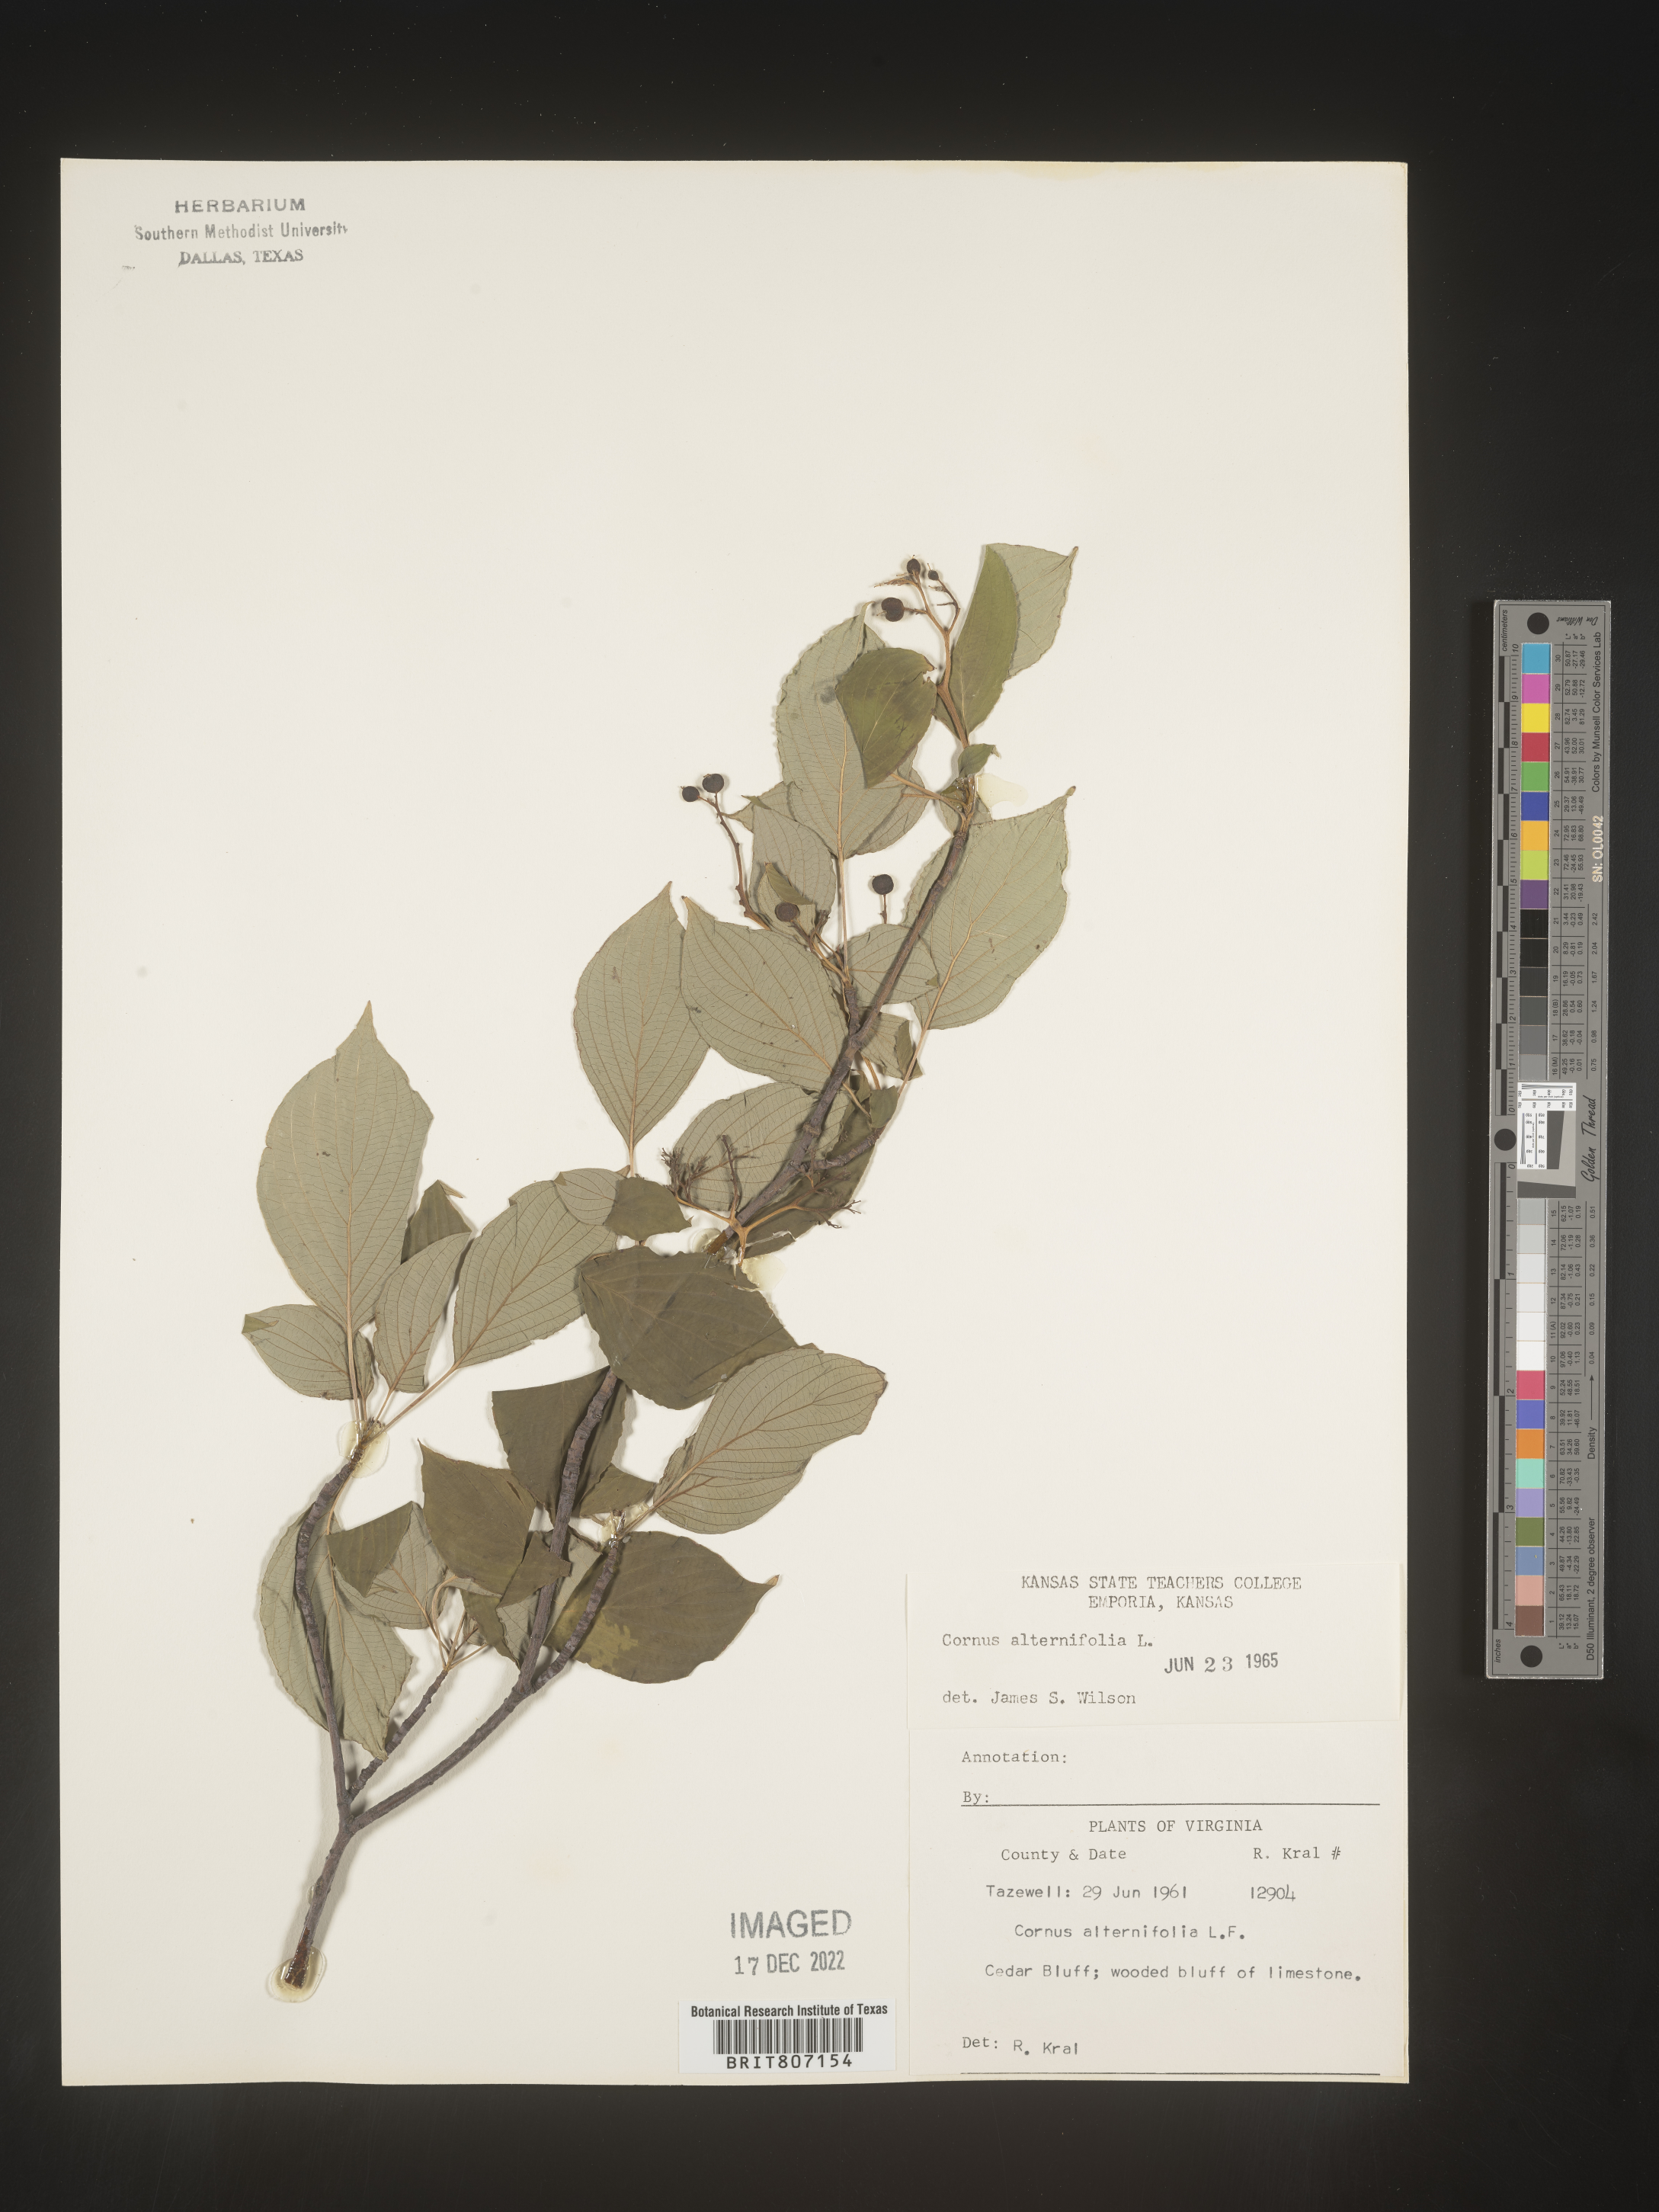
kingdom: Plantae
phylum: Tracheophyta
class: Magnoliopsida
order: Cornales
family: Cornaceae
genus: Cornus
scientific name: Cornus alternifolia
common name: Pagoda dogwood
